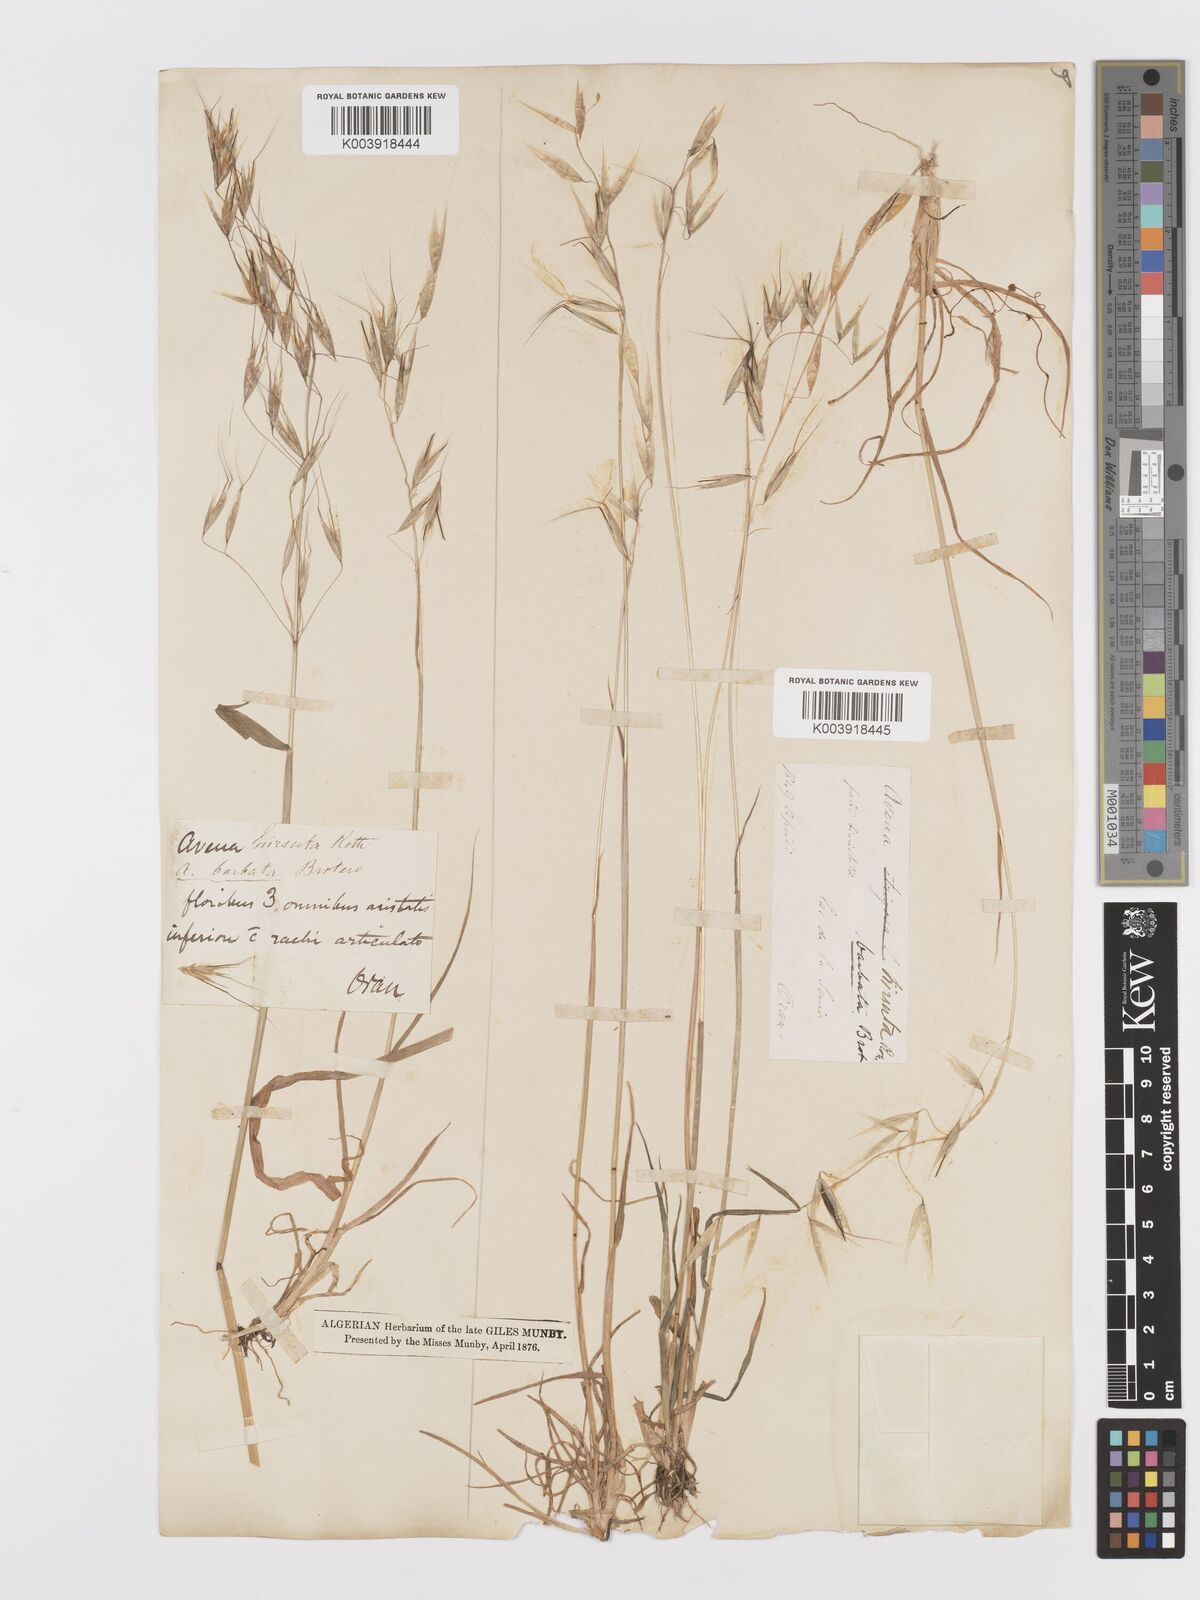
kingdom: Plantae
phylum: Tracheophyta
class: Liliopsida
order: Poales
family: Poaceae
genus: Avena
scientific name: Avena
